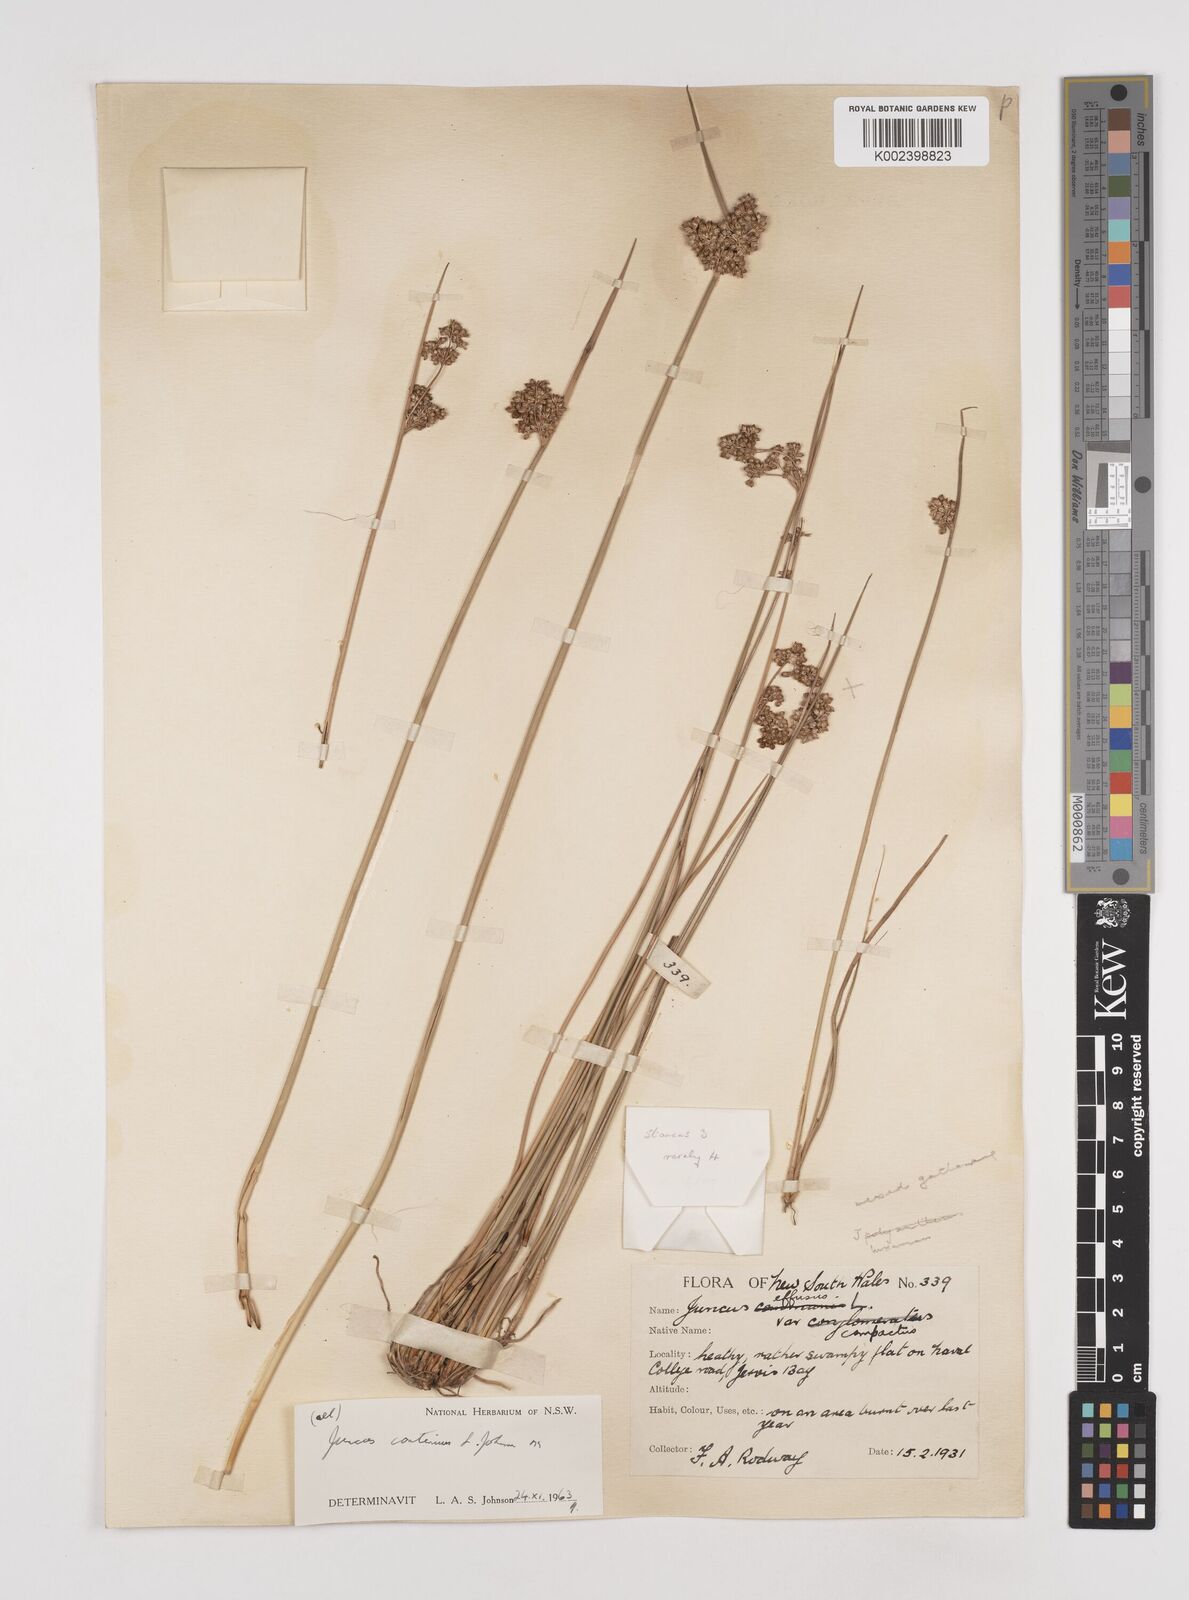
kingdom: Plantae
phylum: Tracheophyta
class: Liliopsida
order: Poales
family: Juncaceae
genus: Juncus
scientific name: Juncus continuus
